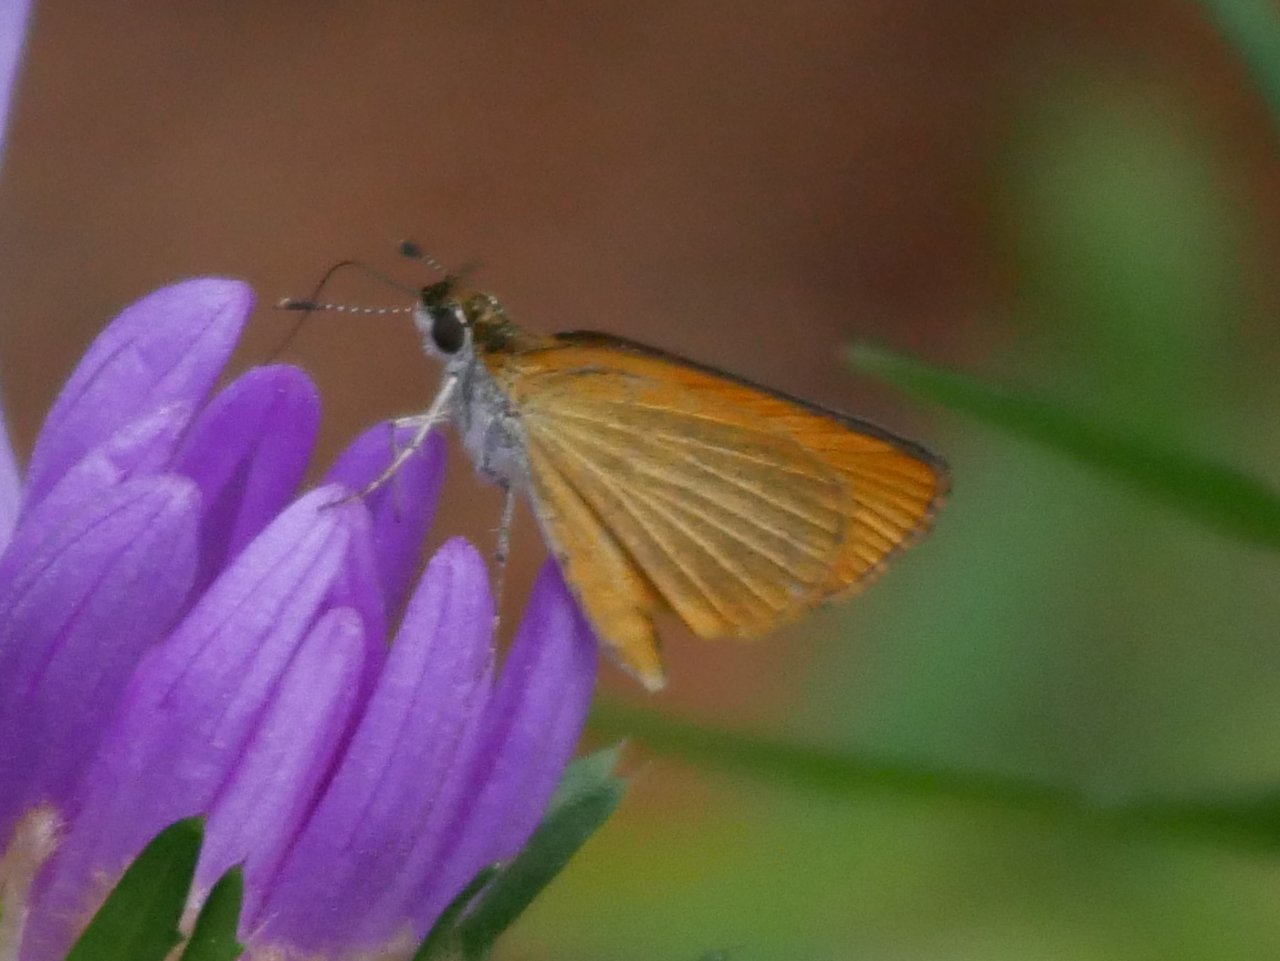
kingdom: Animalia
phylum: Arthropoda
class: Insecta
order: Lepidoptera
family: Hesperiidae
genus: Ancyloxypha
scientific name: Ancyloxypha numitor
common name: Least Skipper
